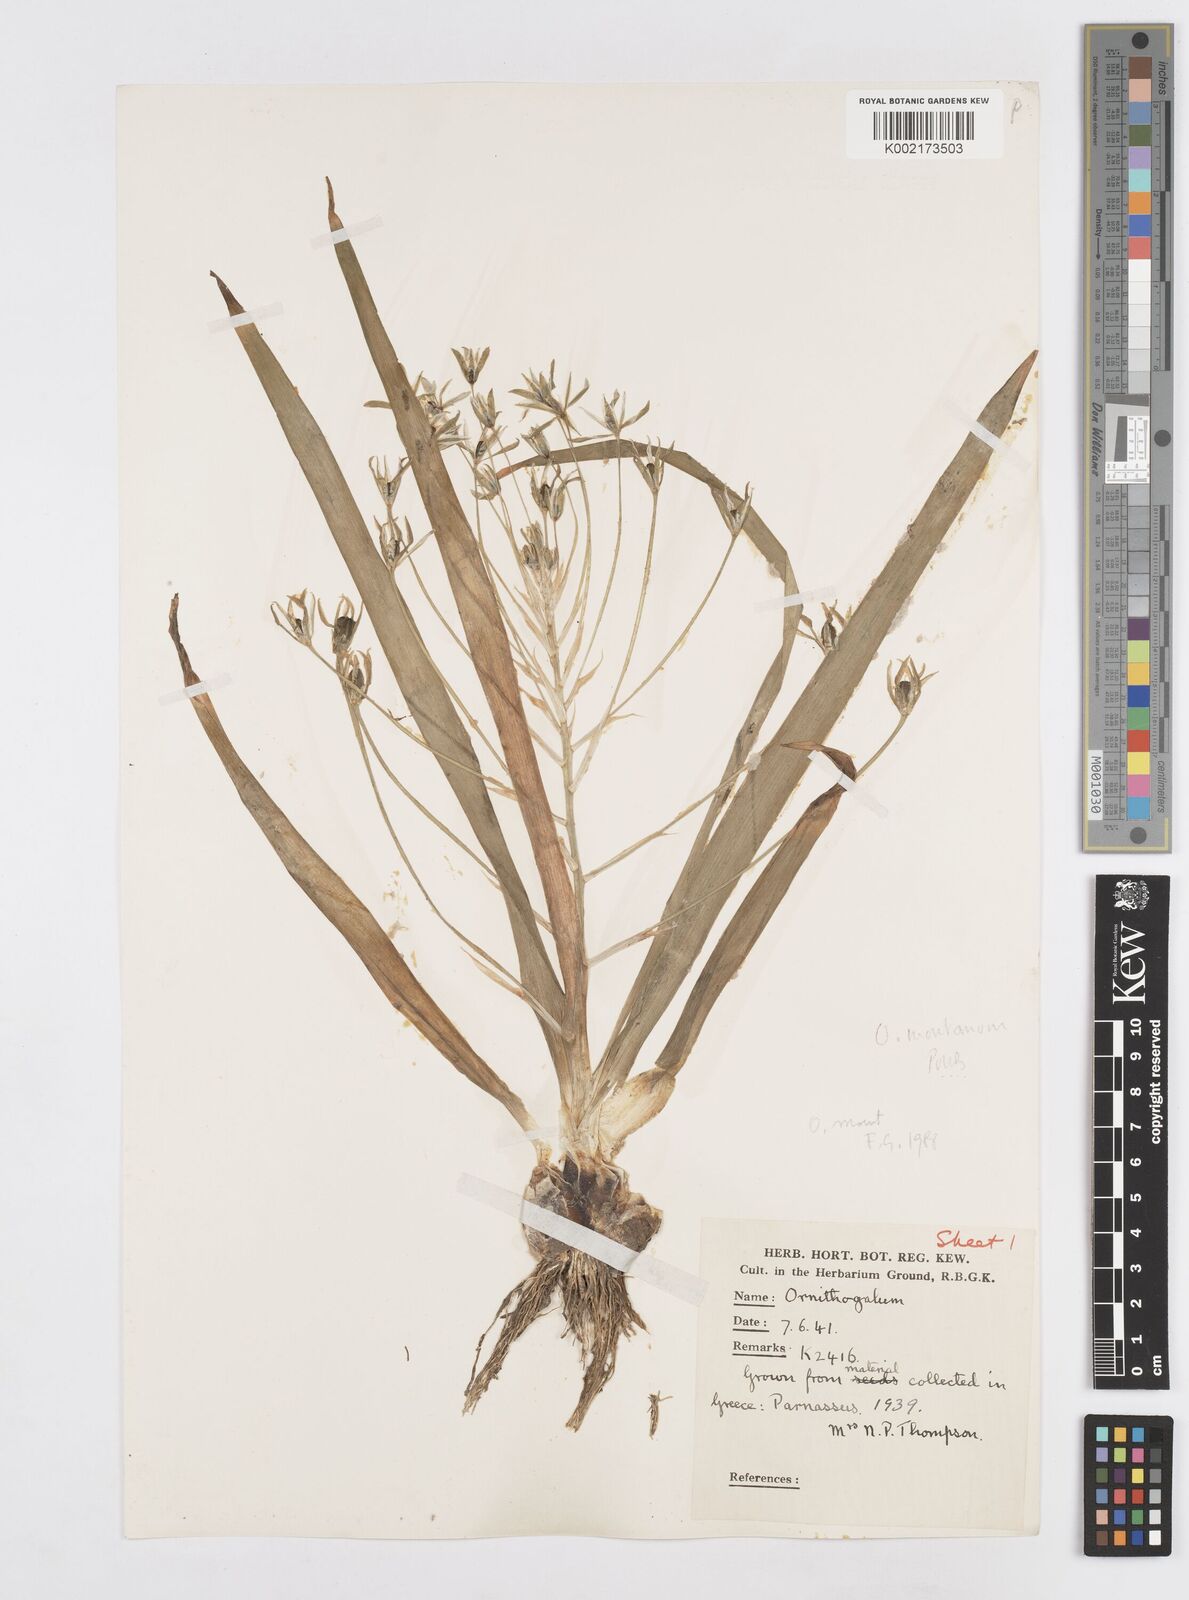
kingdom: Plantae
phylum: Tracheophyta
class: Liliopsida
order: Asparagales
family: Asparagaceae
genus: Ornithogalum
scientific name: Ornithogalum montanum
